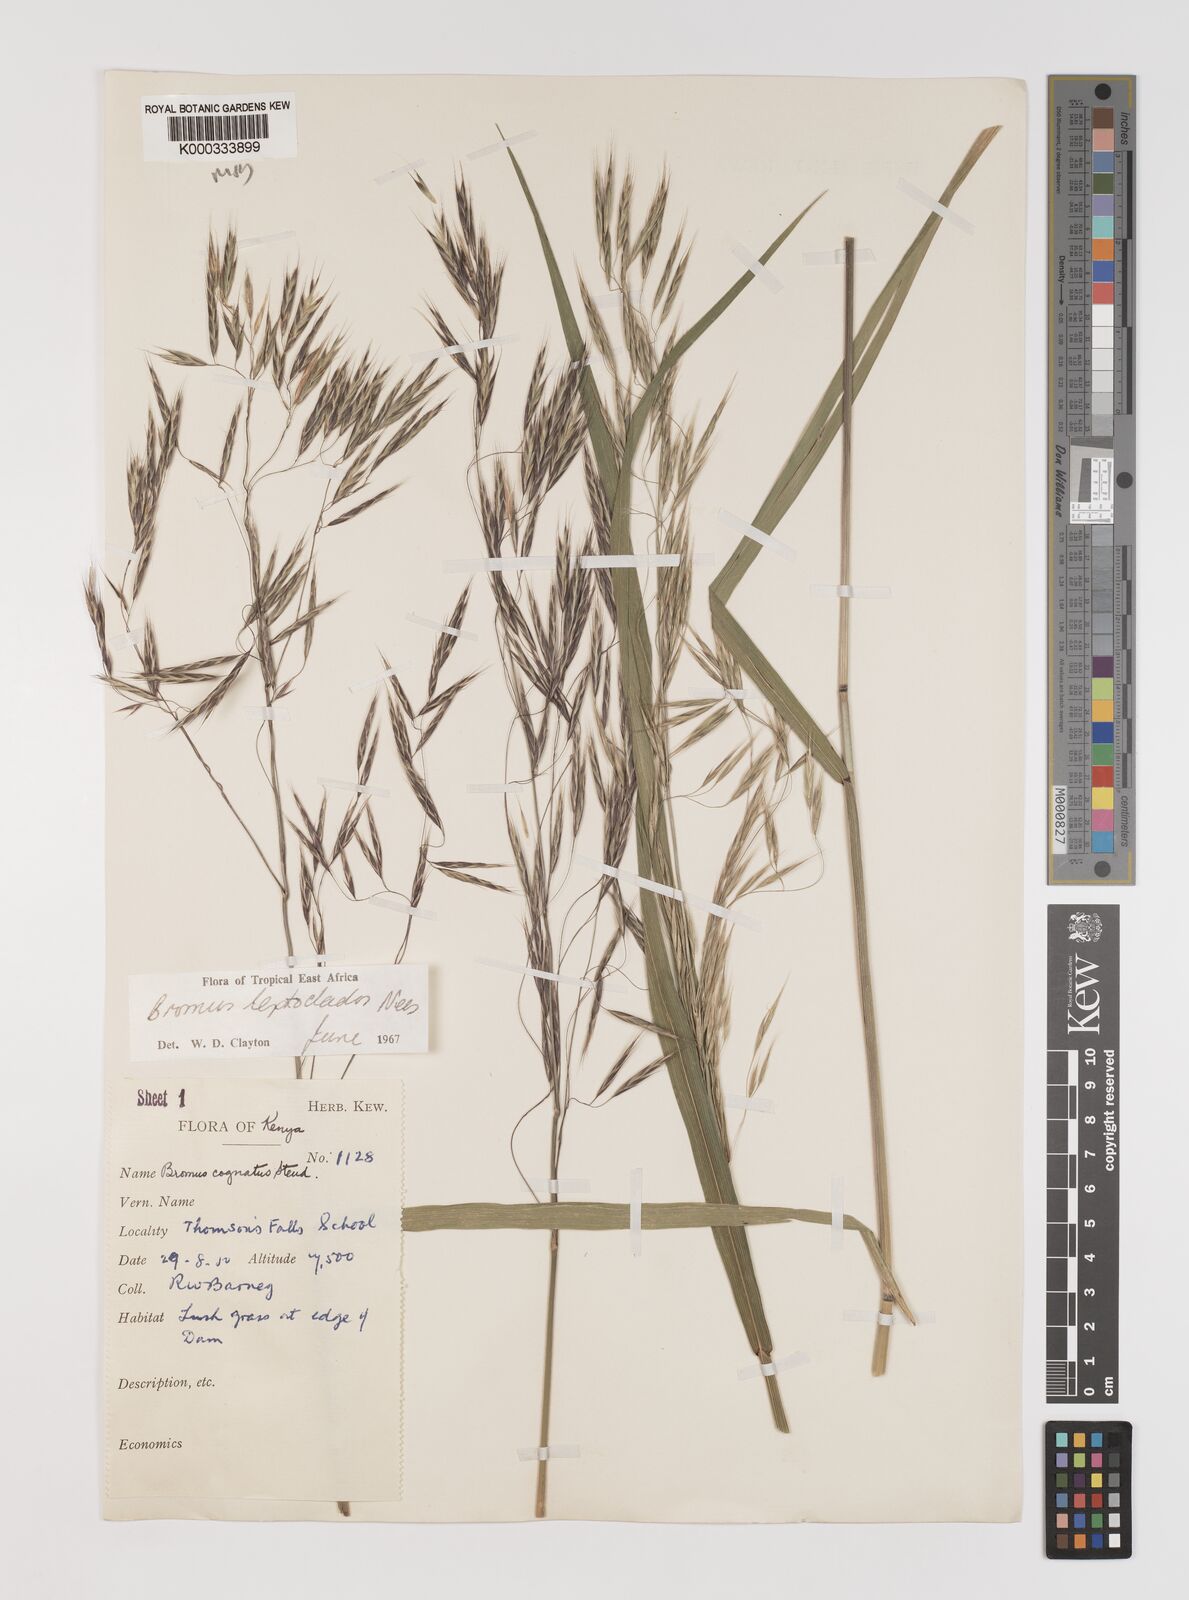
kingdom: Plantae
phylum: Tracheophyta
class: Liliopsida
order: Poales
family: Poaceae
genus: Bromus
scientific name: Bromus leptoclados
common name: Mountain bromegrass
